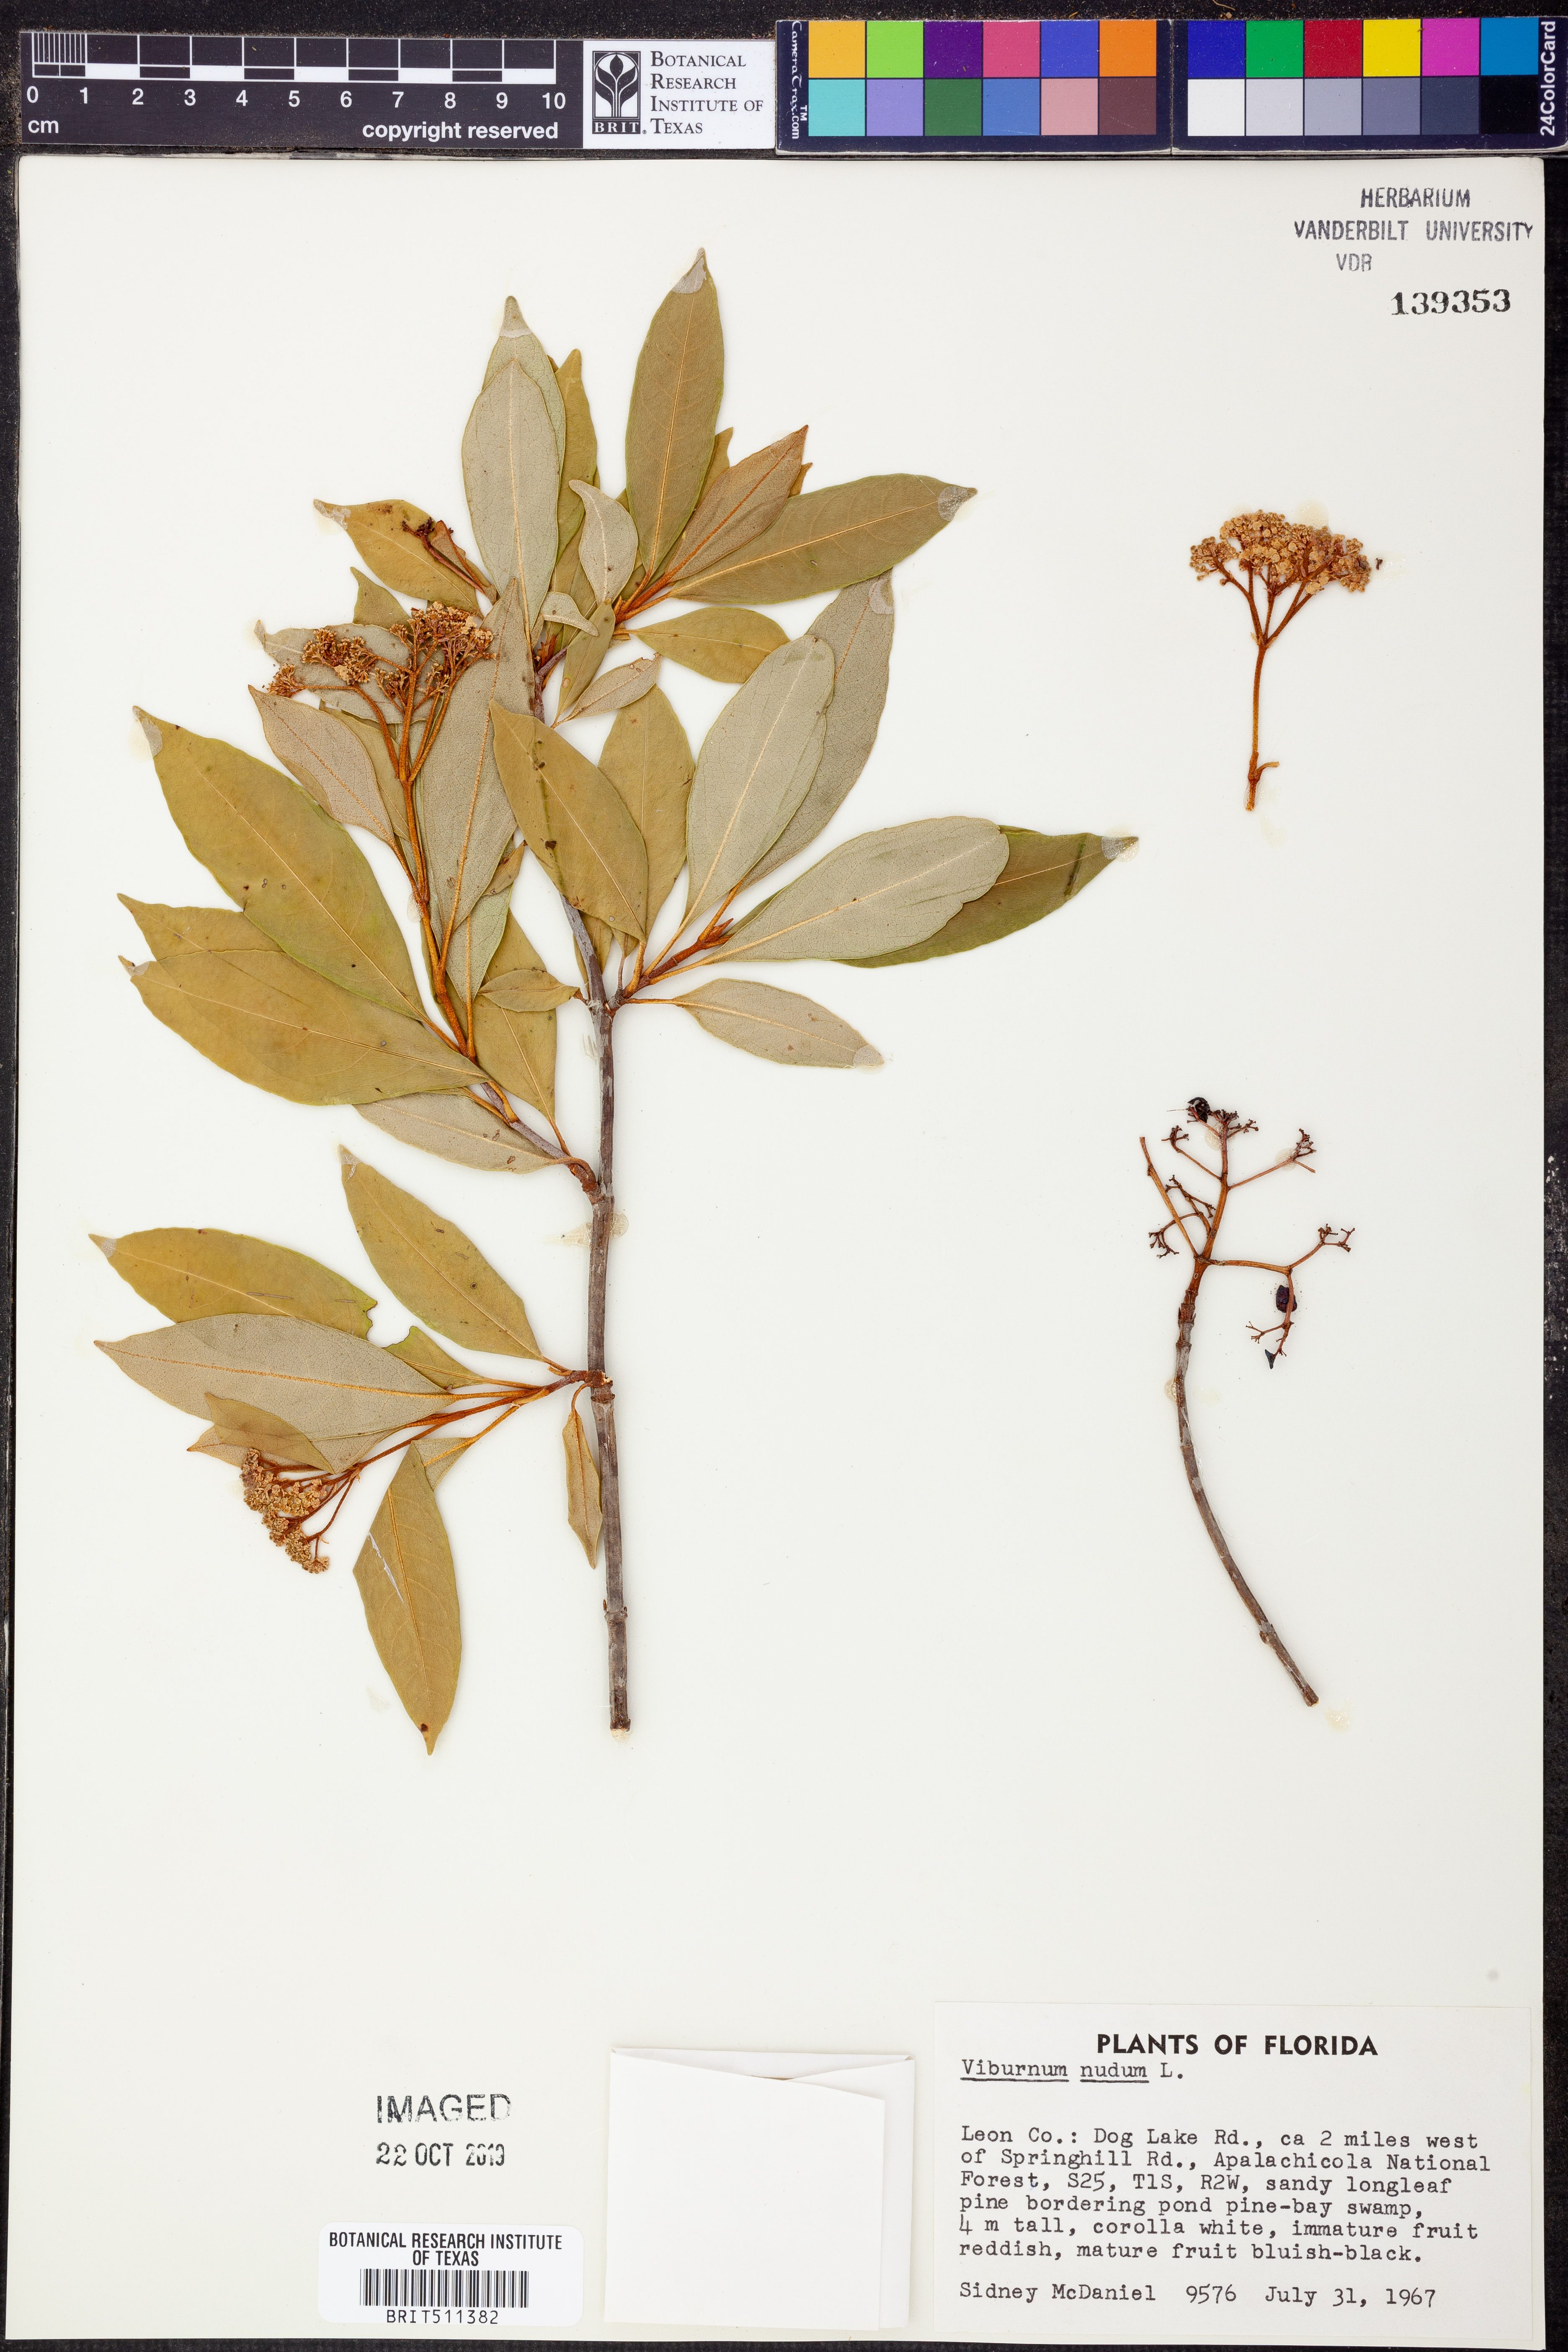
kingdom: Plantae
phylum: Tracheophyta
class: Magnoliopsida
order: Dipsacales
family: Viburnaceae
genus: Viburnum
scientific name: Viburnum nudum
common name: Possum haw
